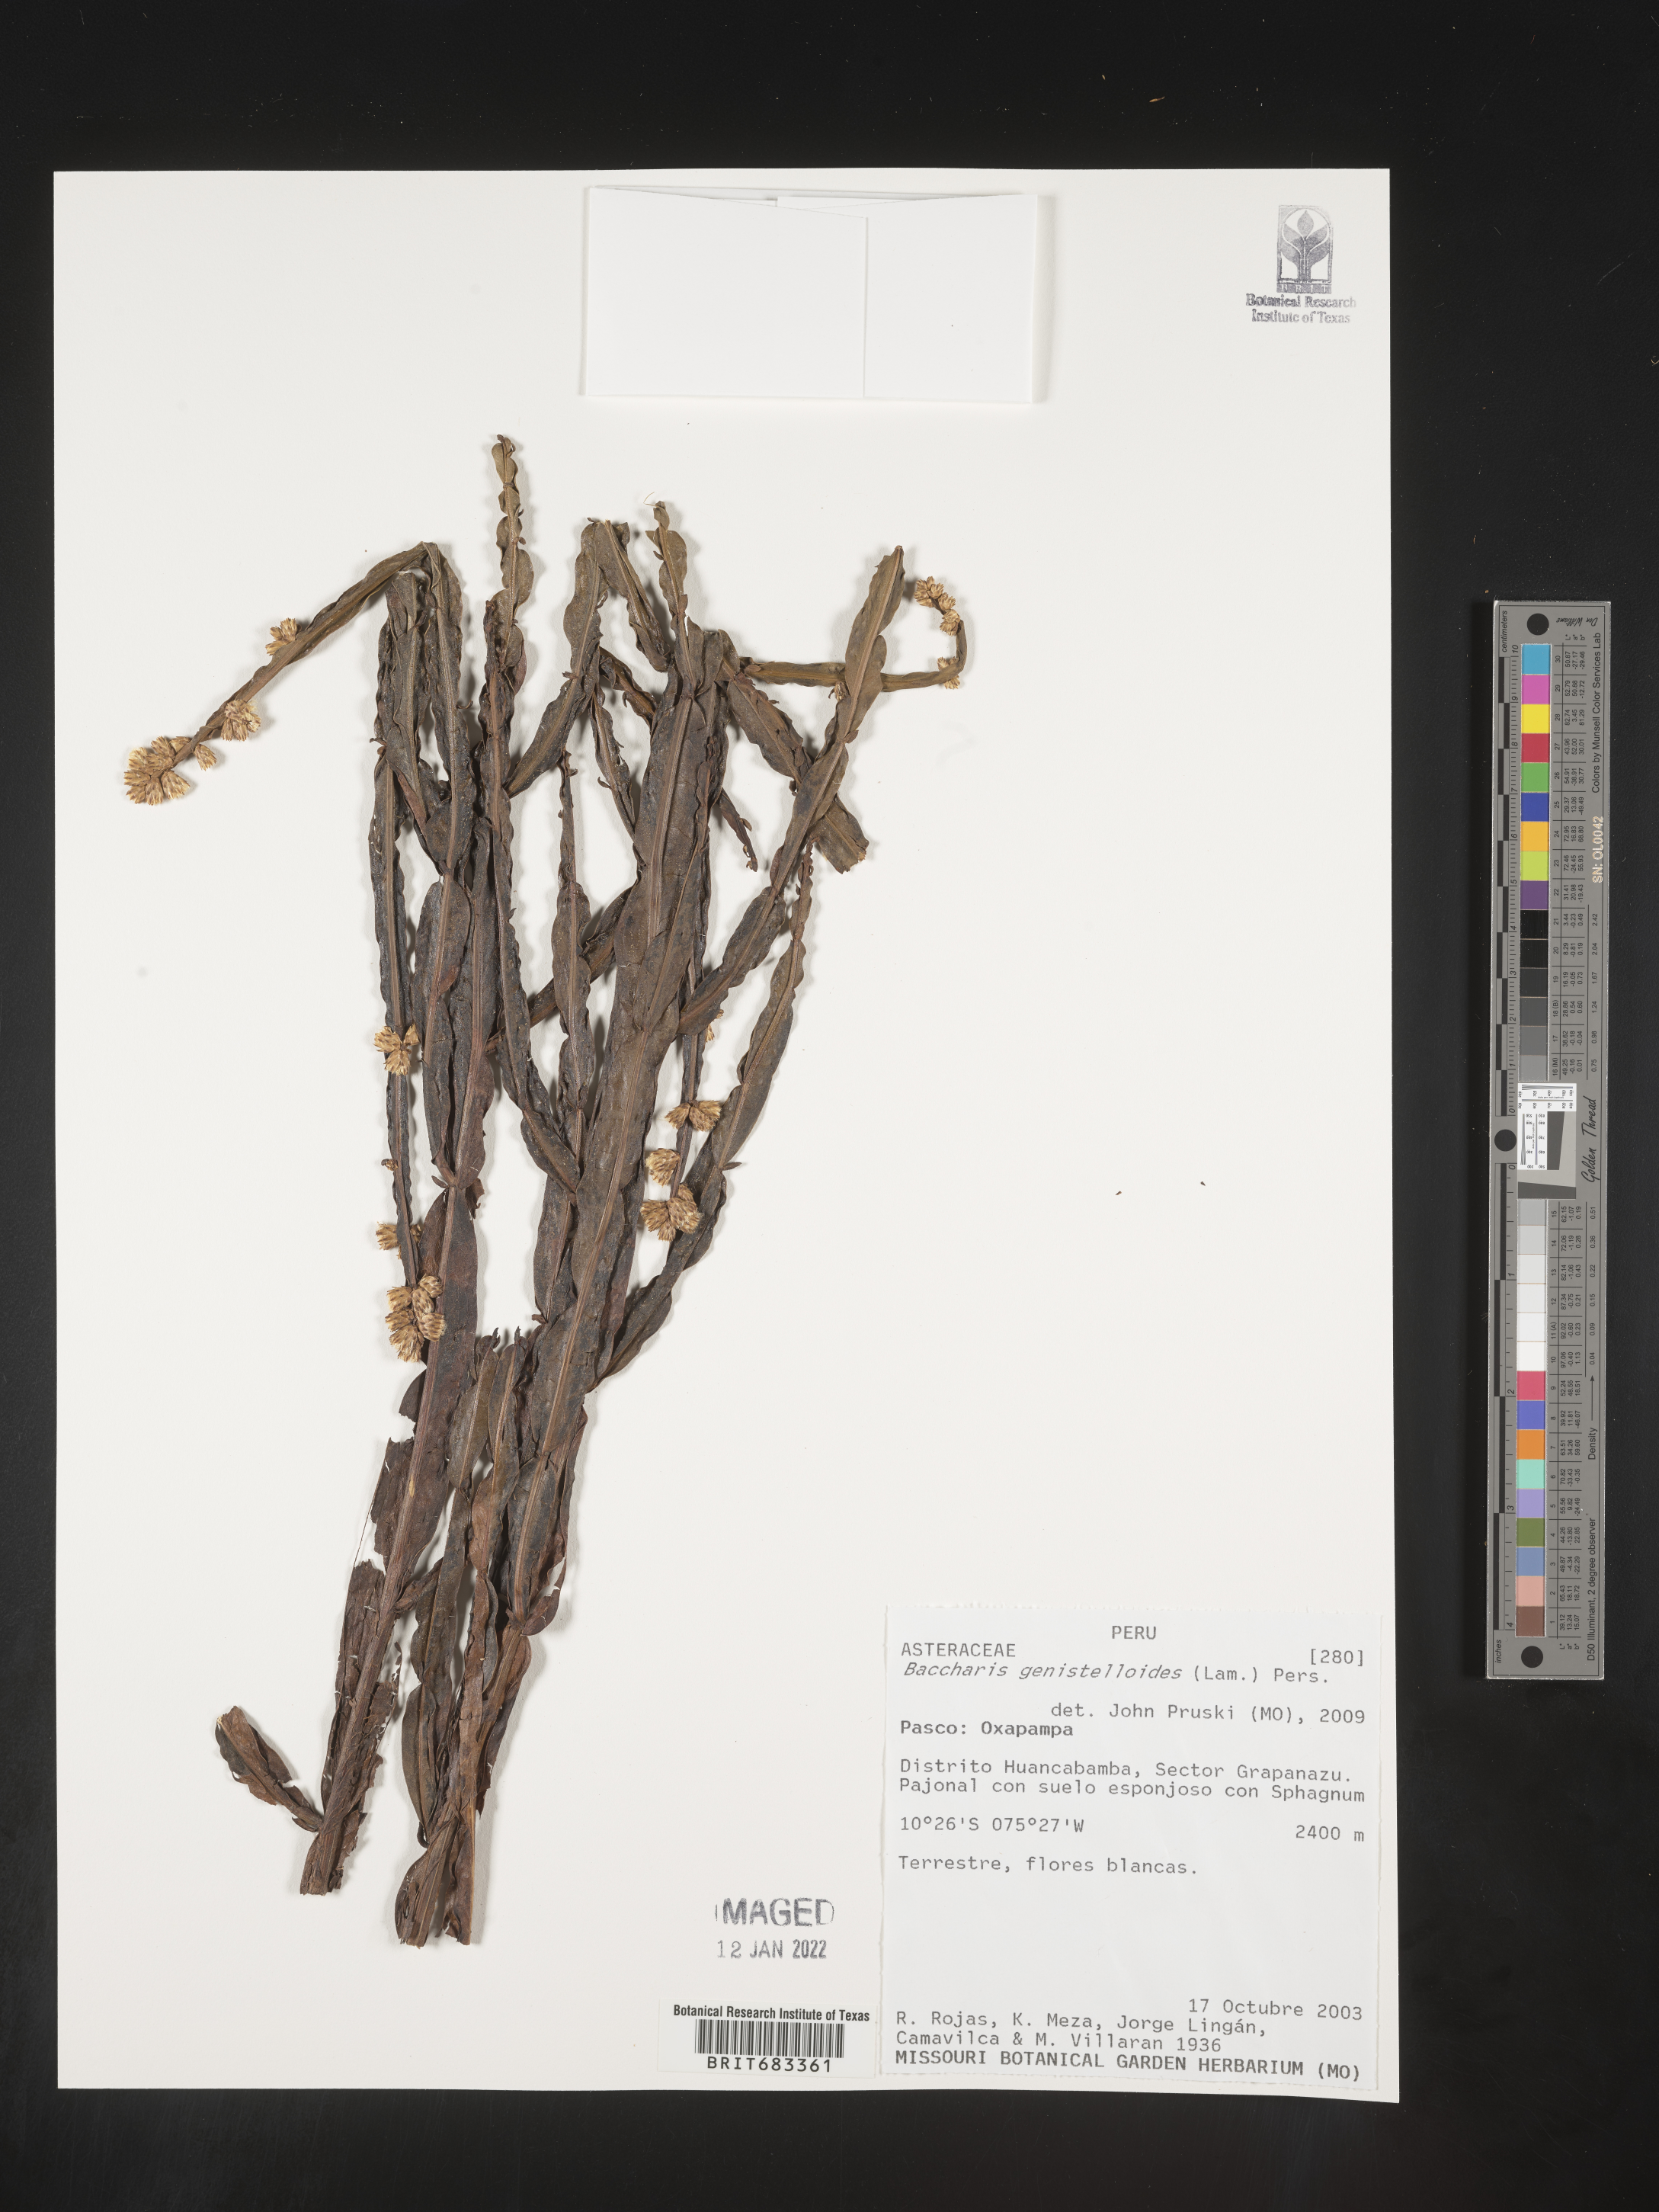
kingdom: Plantae
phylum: Tracheophyta
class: Magnoliopsida
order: Asterales
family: Asteraceae
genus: Baccharis
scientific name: Baccharis
